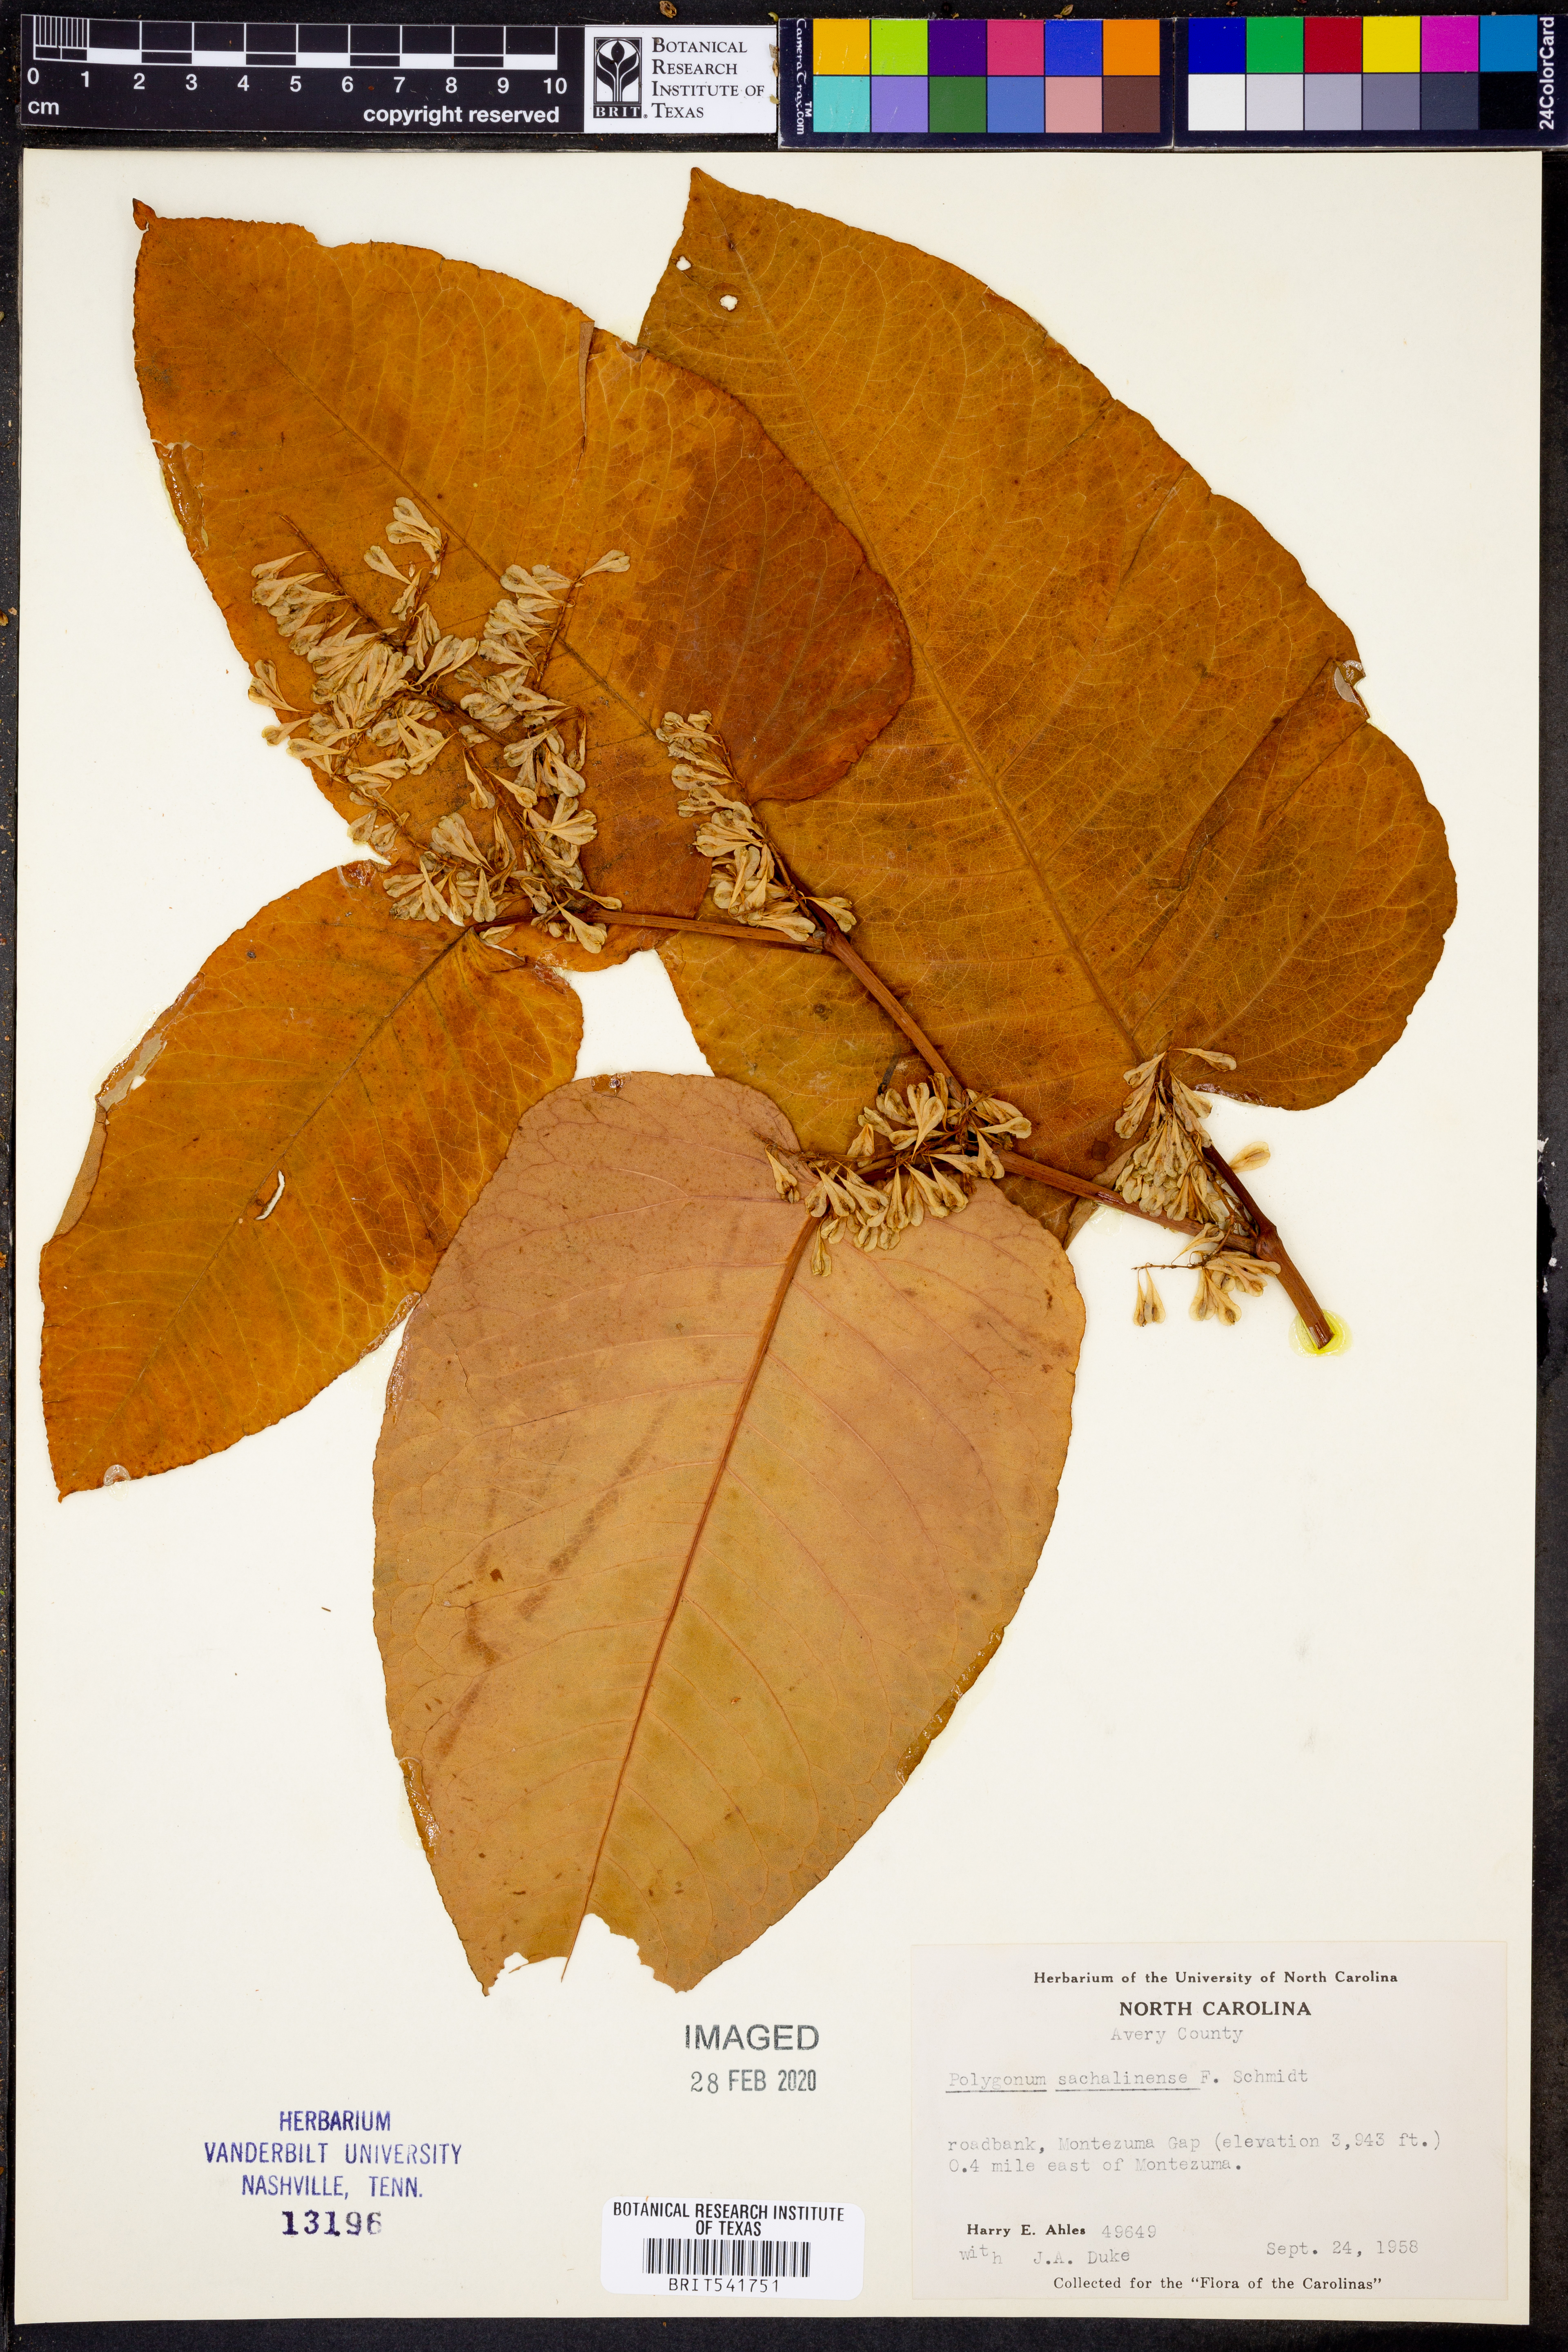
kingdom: Plantae
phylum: Tracheophyta
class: Magnoliopsida
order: Caryophyllales
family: Polygonaceae
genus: Reynoutria
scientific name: Reynoutria sachalinensis
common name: Giant knotweed
